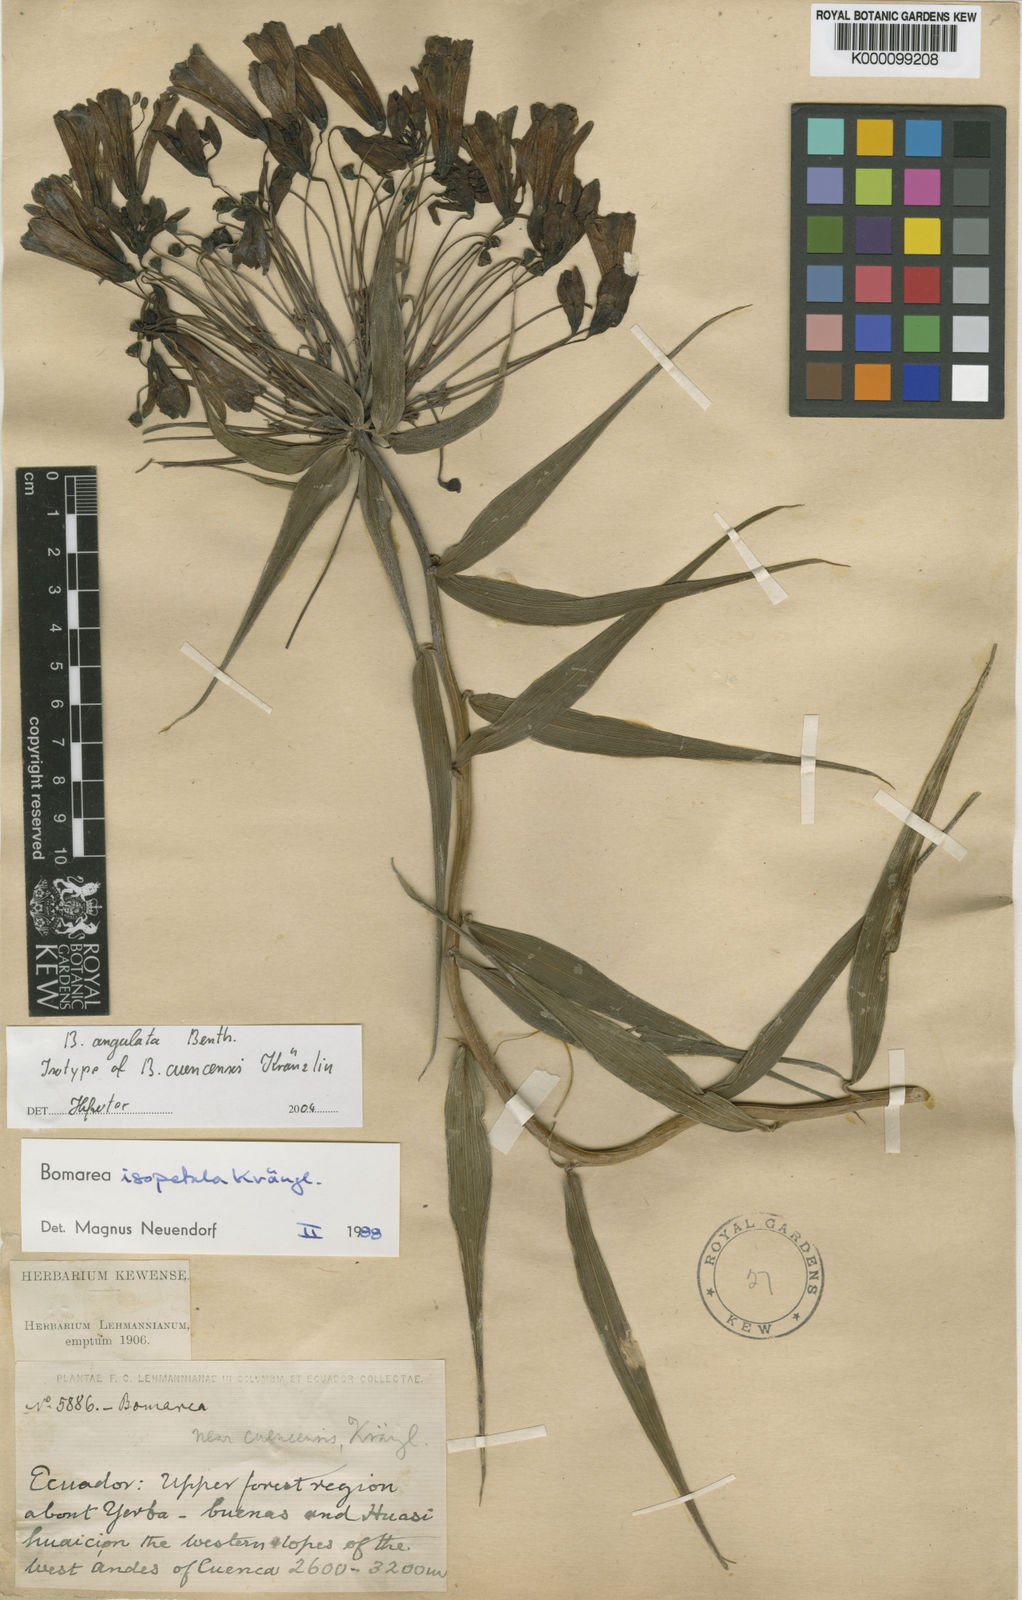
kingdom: Plantae
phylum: Tracheophyta
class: Liliopsida
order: Liliales
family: Alstroemeriaceae
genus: Bomarea
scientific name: Bomarea angulata
